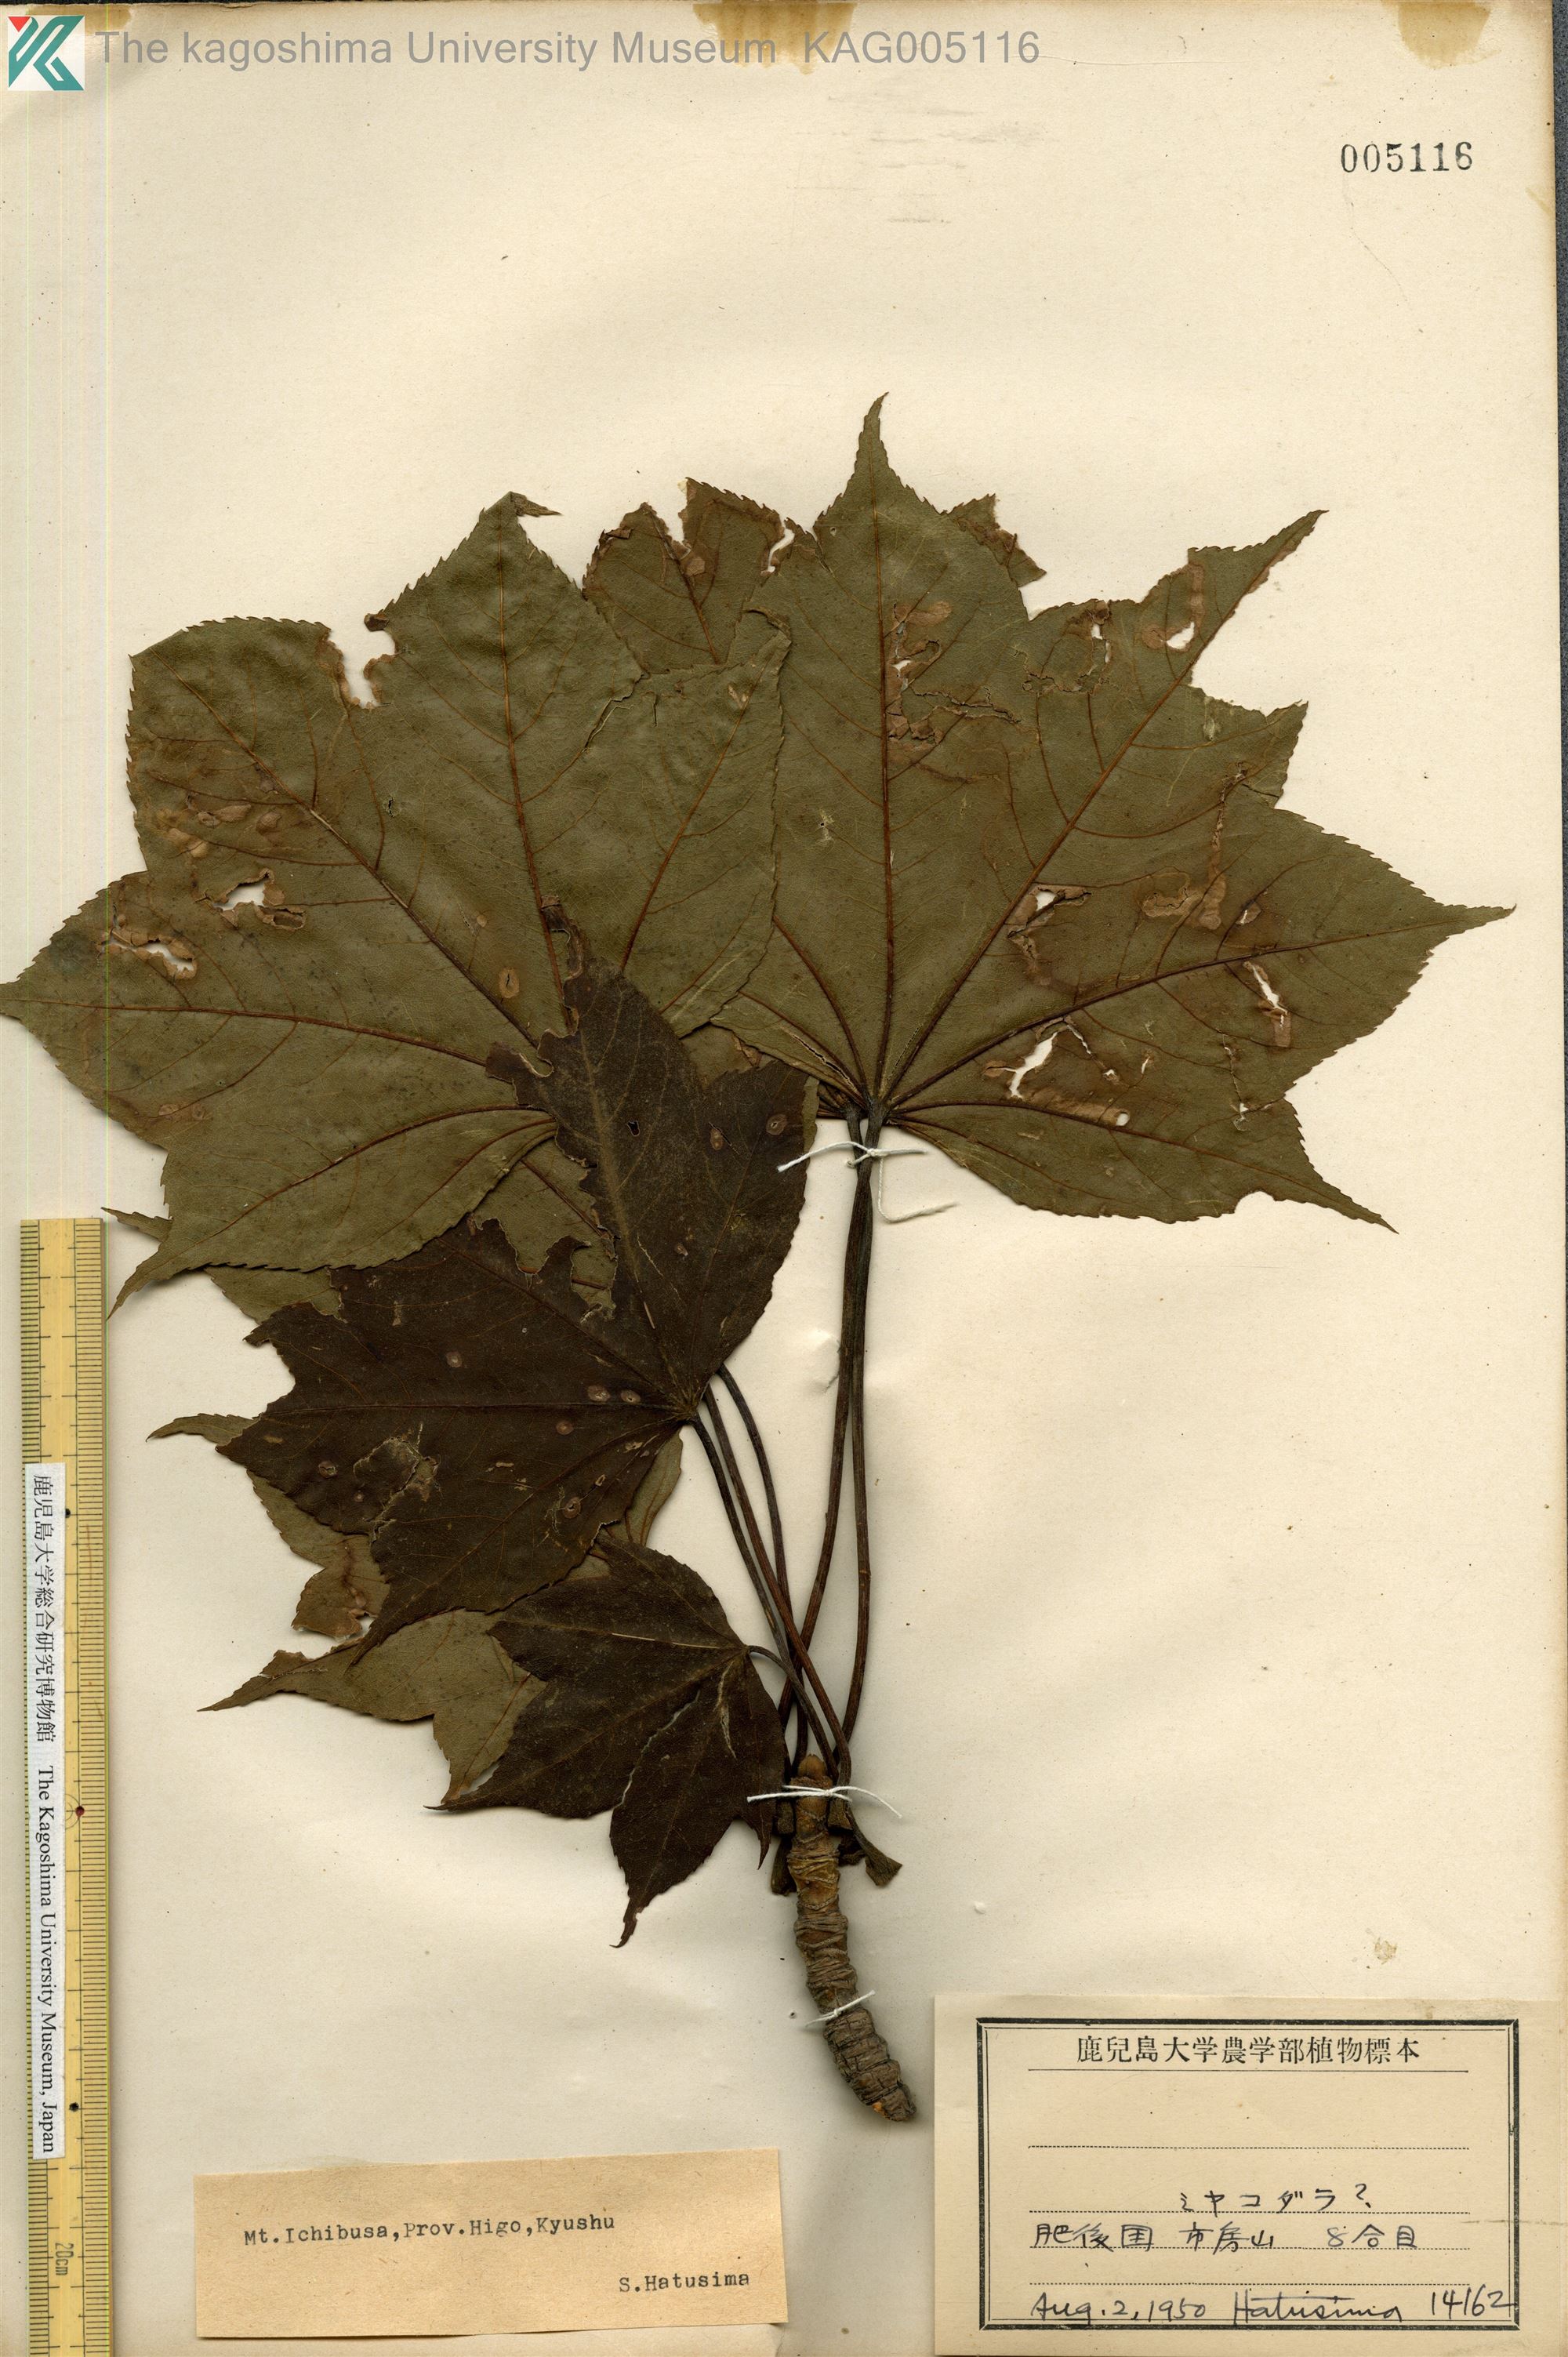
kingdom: Plantae
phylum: Tracheophyta
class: Magnoliopsida
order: Apiales
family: Araliaceae
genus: Kalopanax
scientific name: Kalopanax septemlobus
